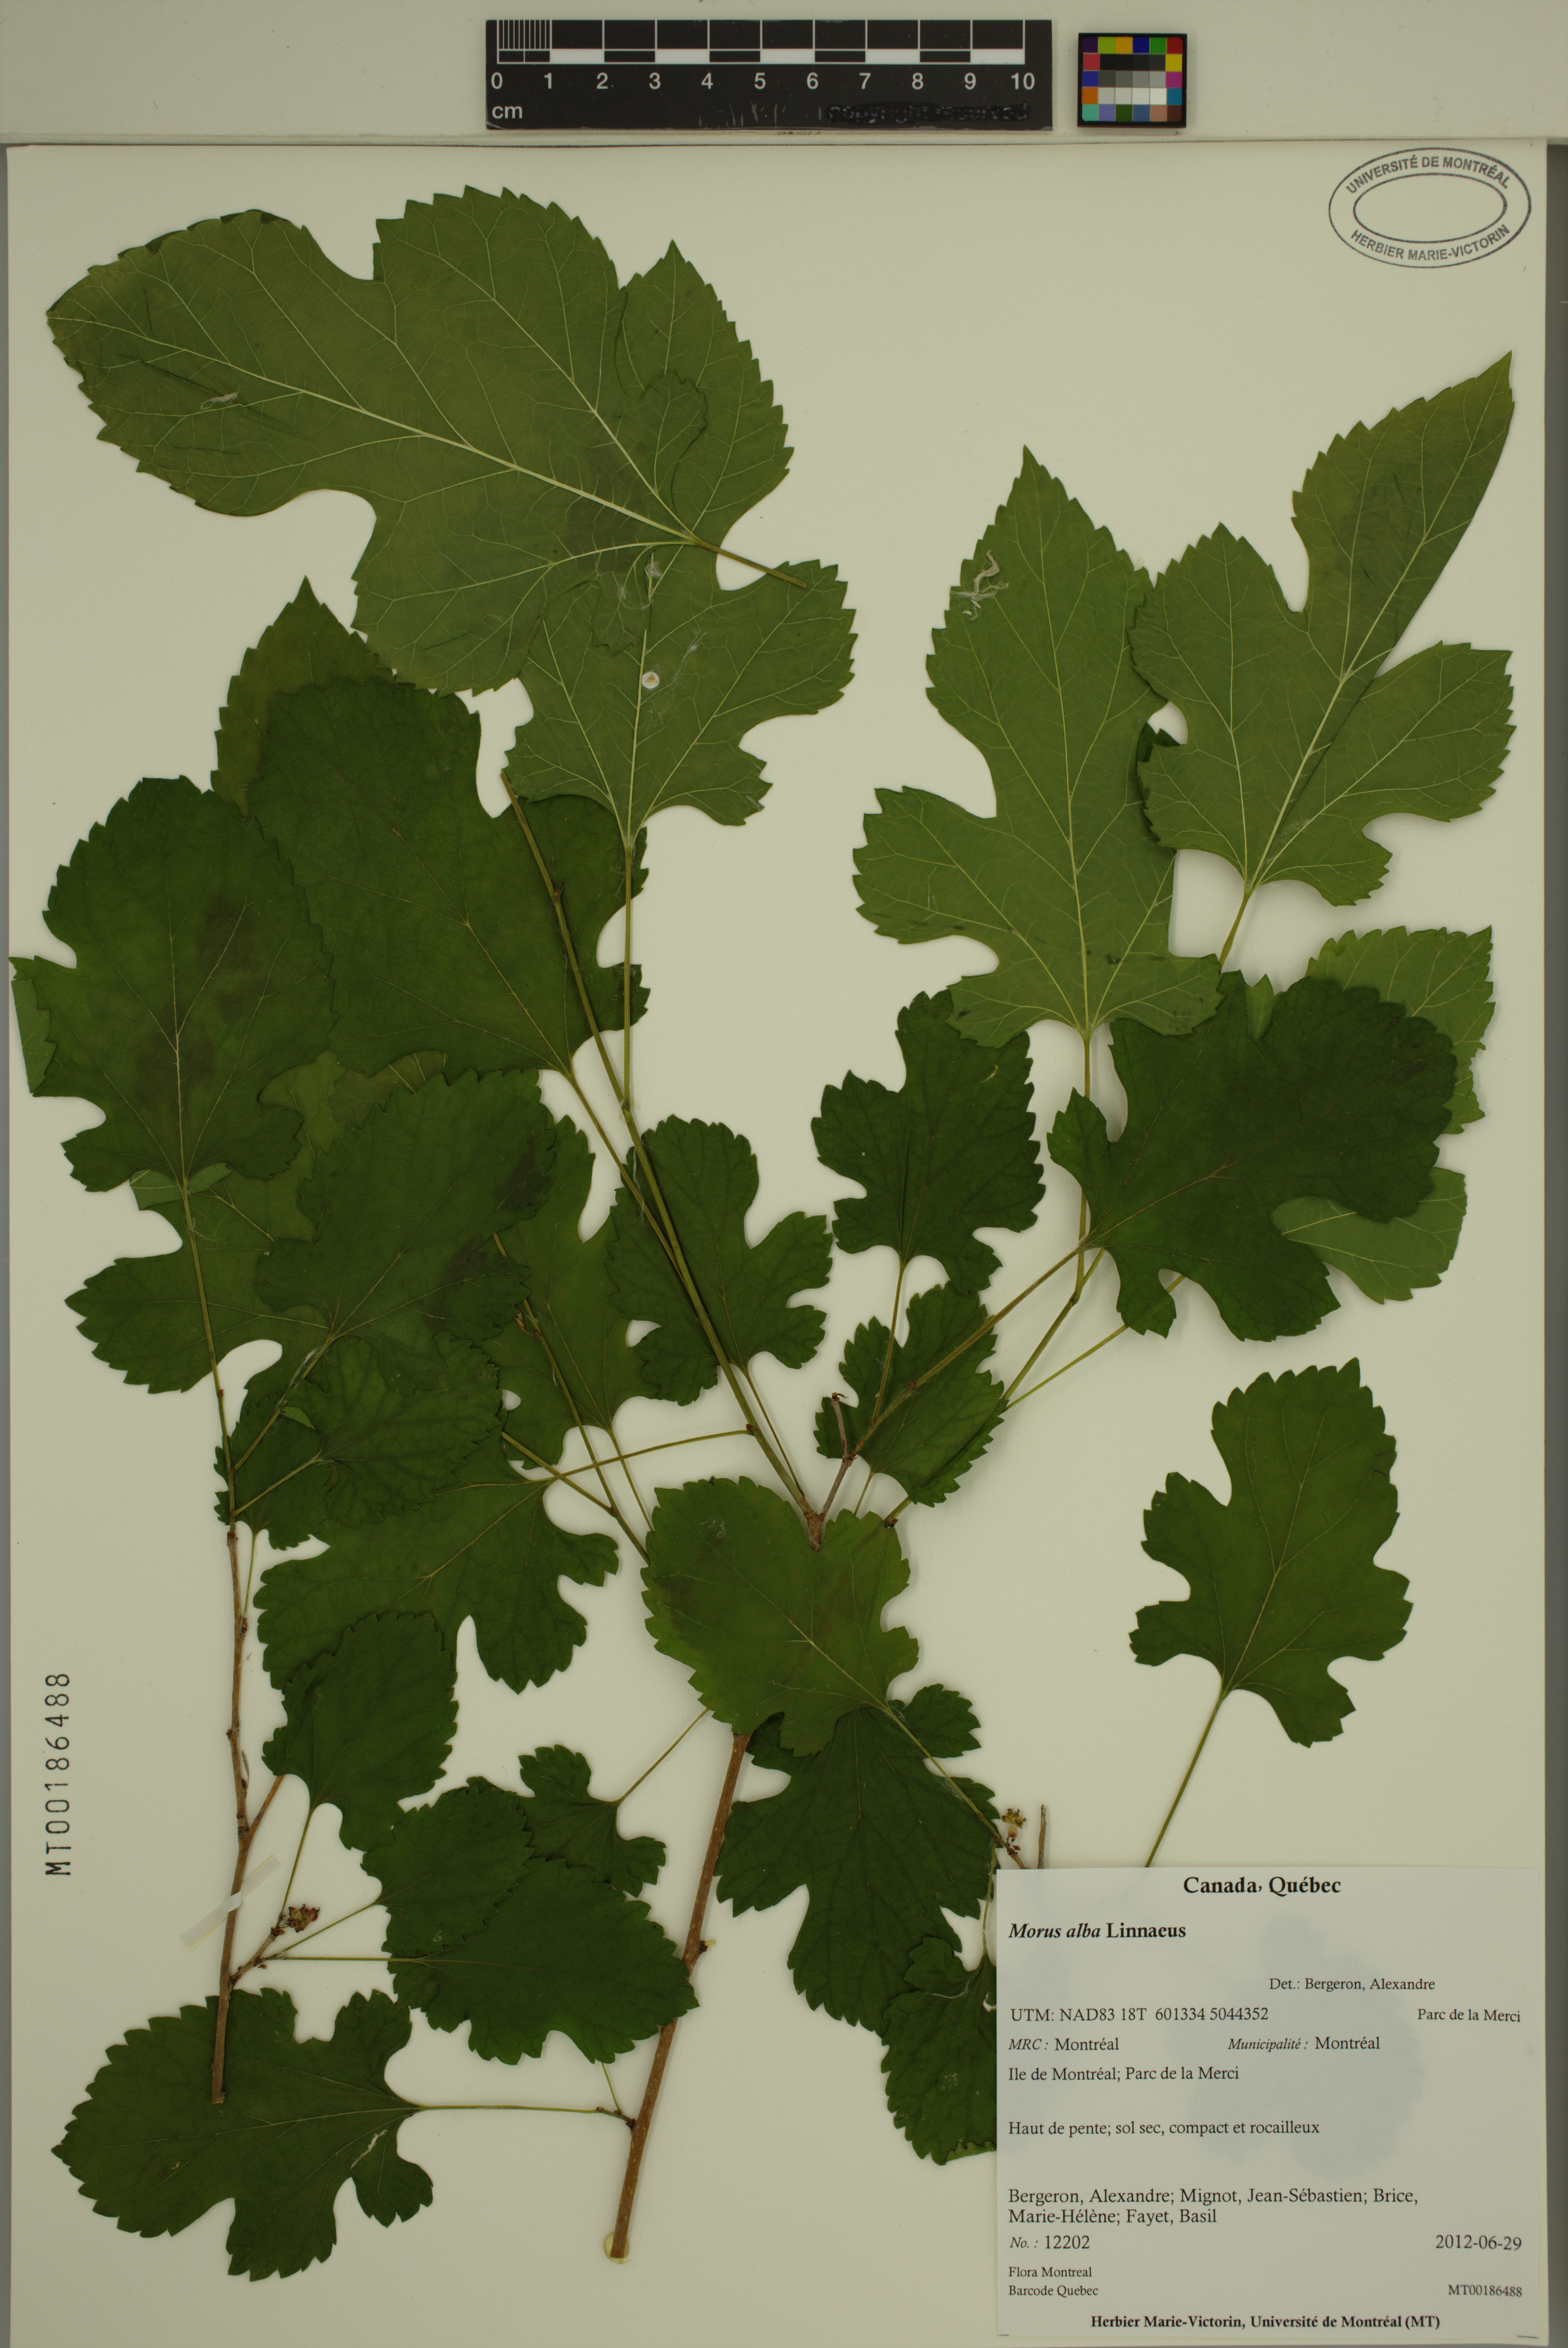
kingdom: Plantae
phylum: Tracheophyta
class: Magnoliopsida
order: Rosales
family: Moraceae
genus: Morus
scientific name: Morus alba
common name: White mulberry
